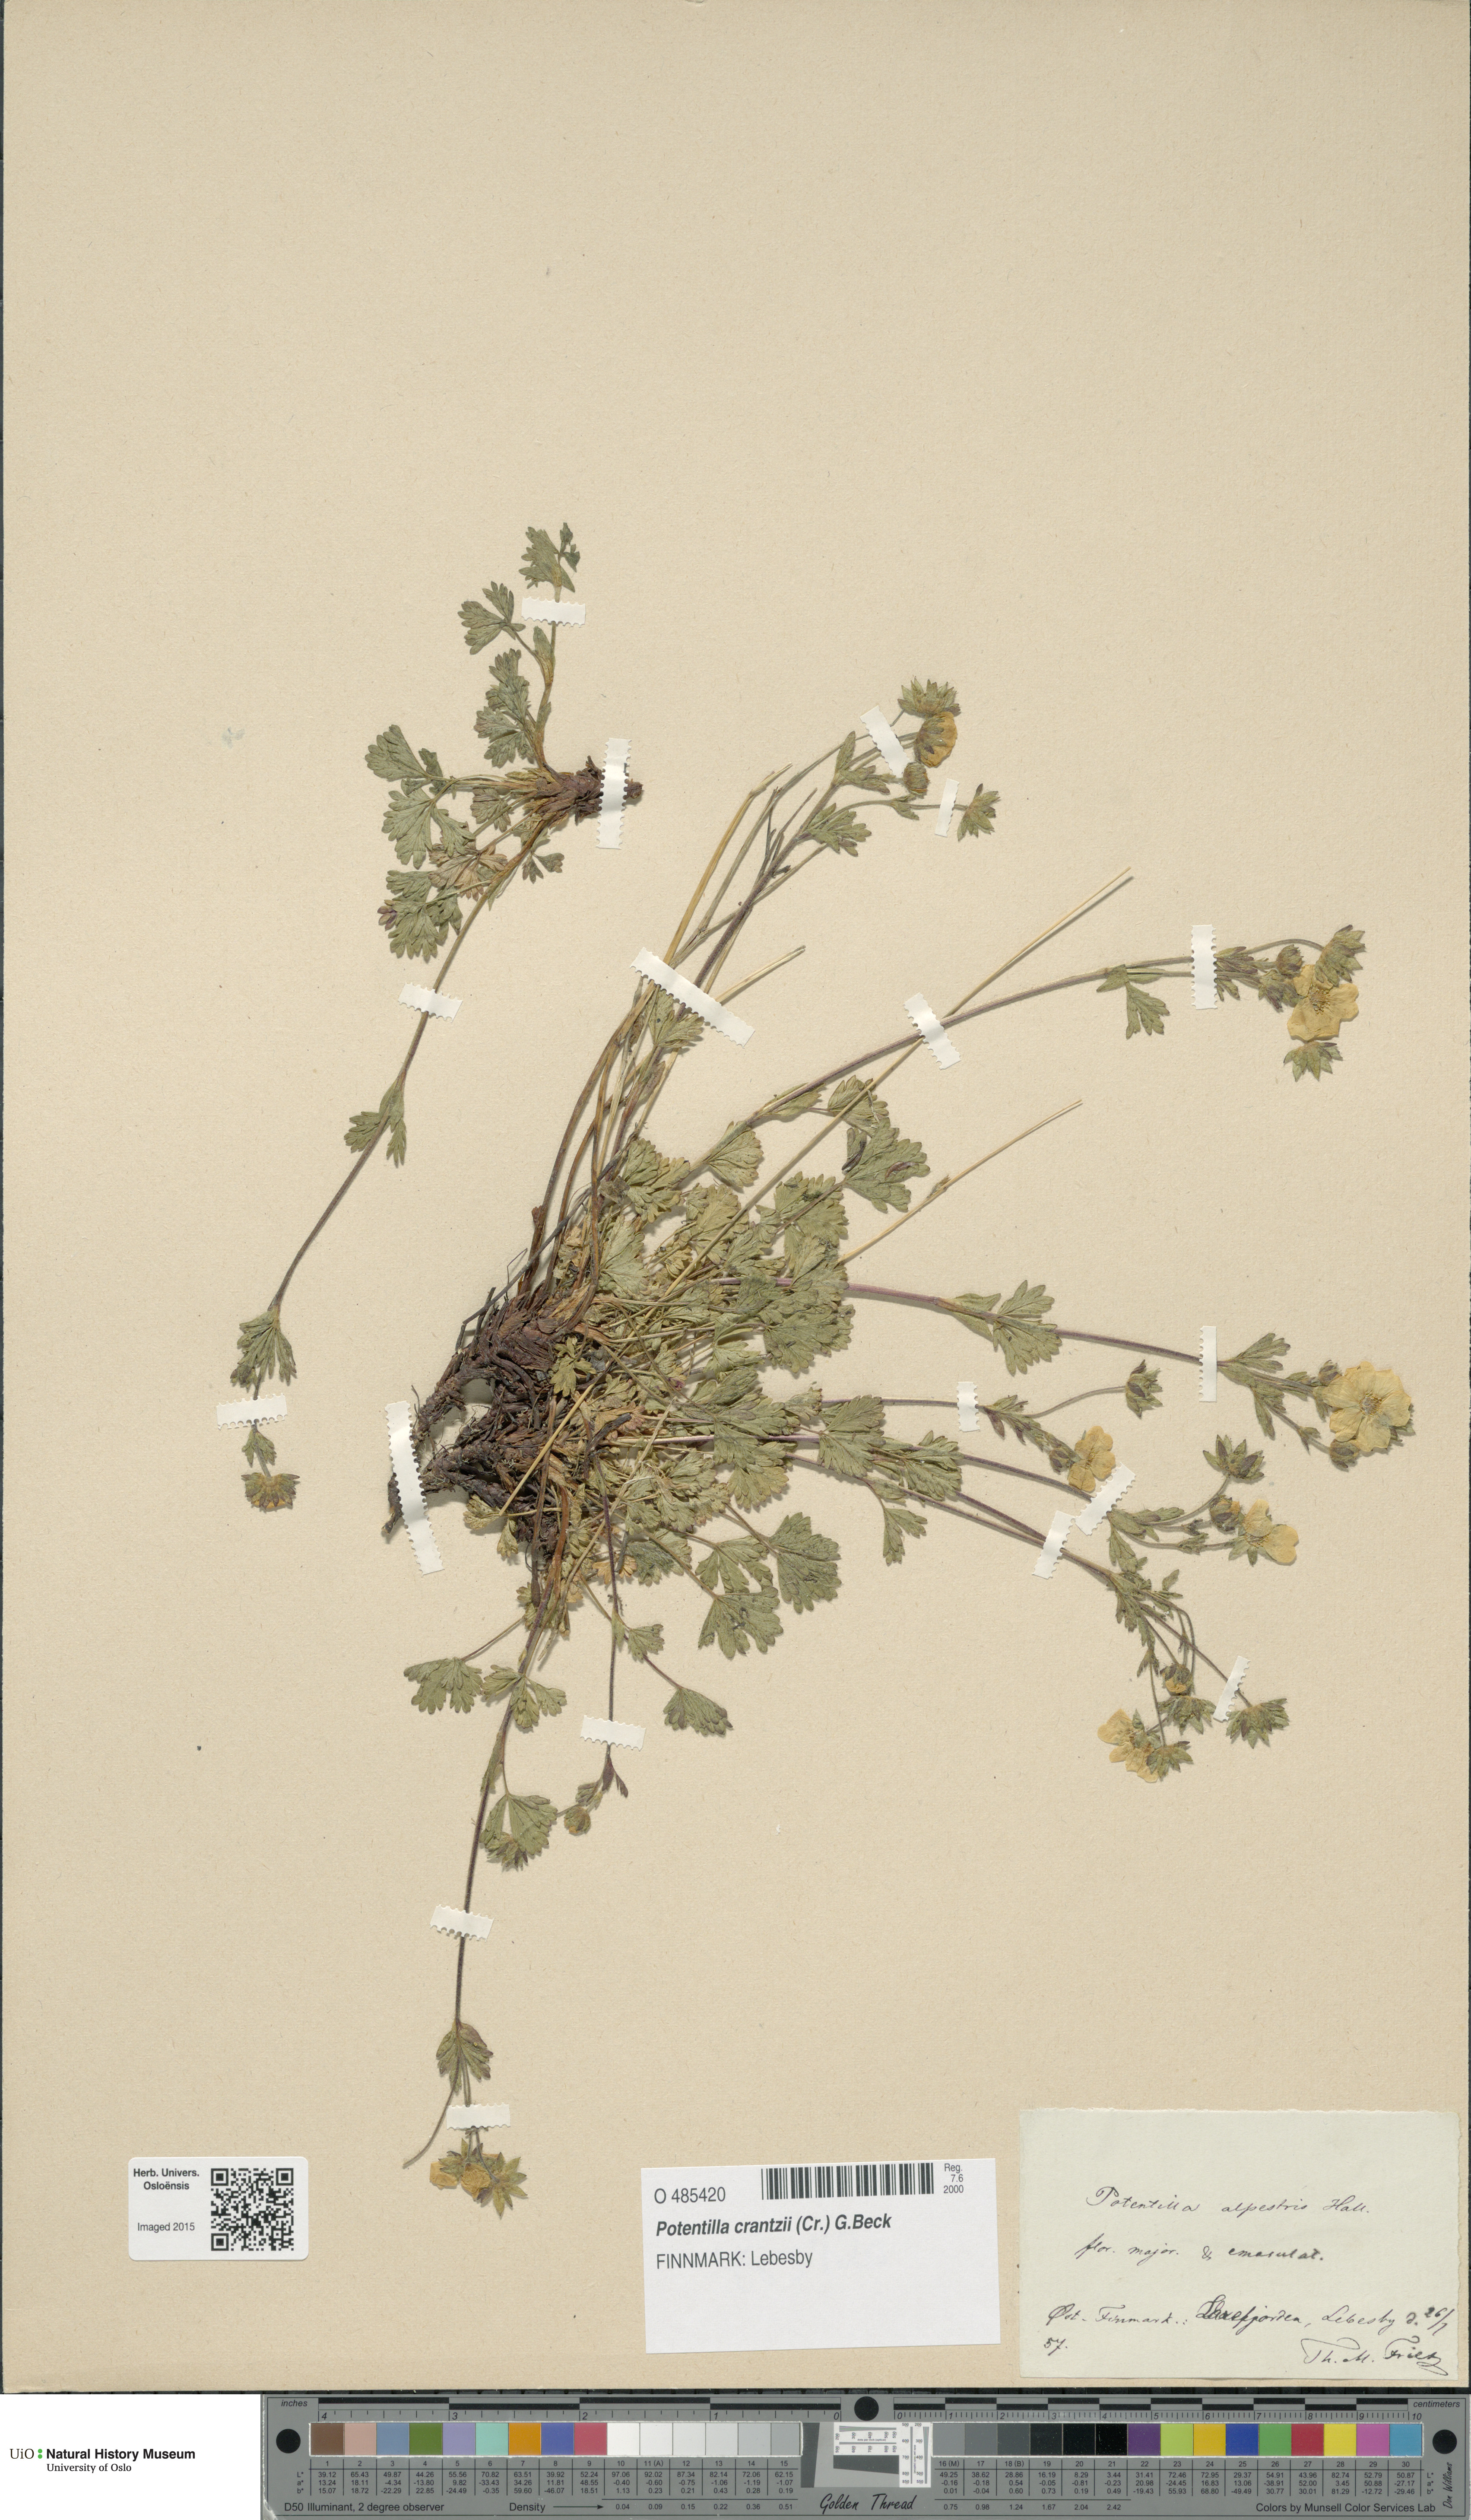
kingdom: Plantae
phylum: Tracheophyta
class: Magnoliopsida
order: Rosales
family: Rosaceae
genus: Potentilla
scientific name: Potentilla crantzii
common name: Alpine cinquefoil
